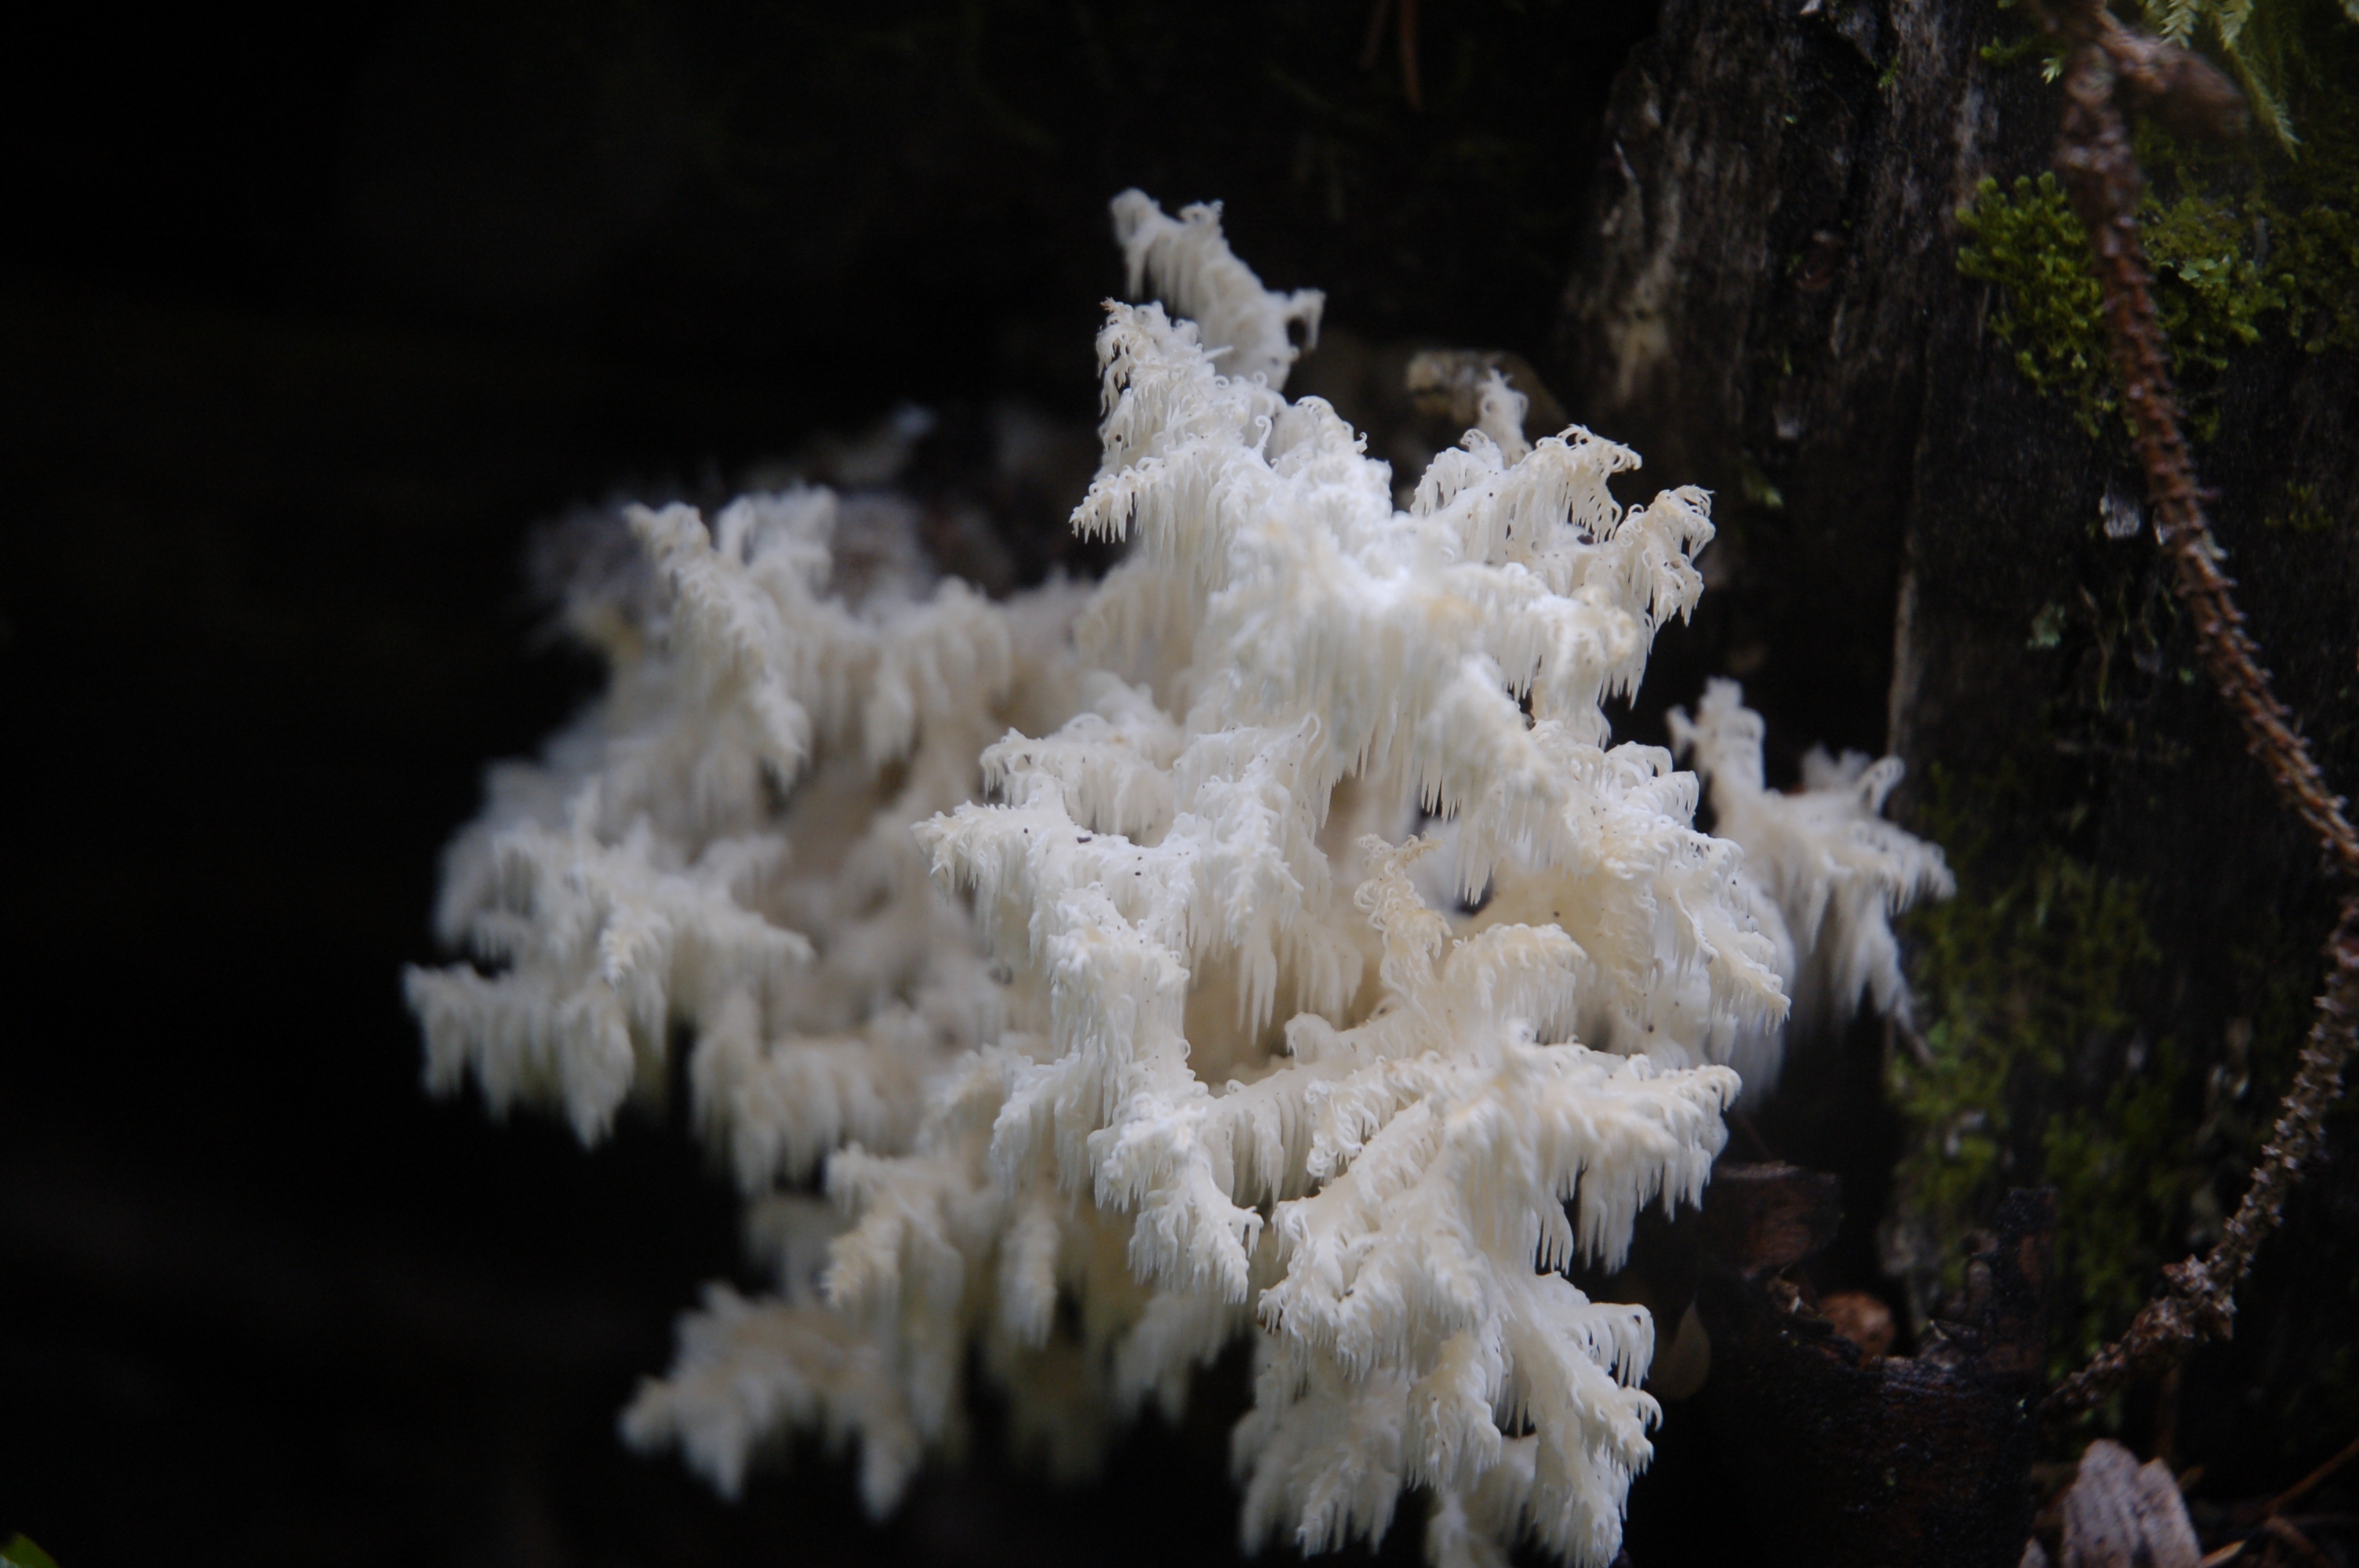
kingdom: Fungi
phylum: Basidiomycota
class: Agaricomycetes
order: Russulales
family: Hericiaceae
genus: Hericium
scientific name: Hericium coralloides
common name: Coral tooth
